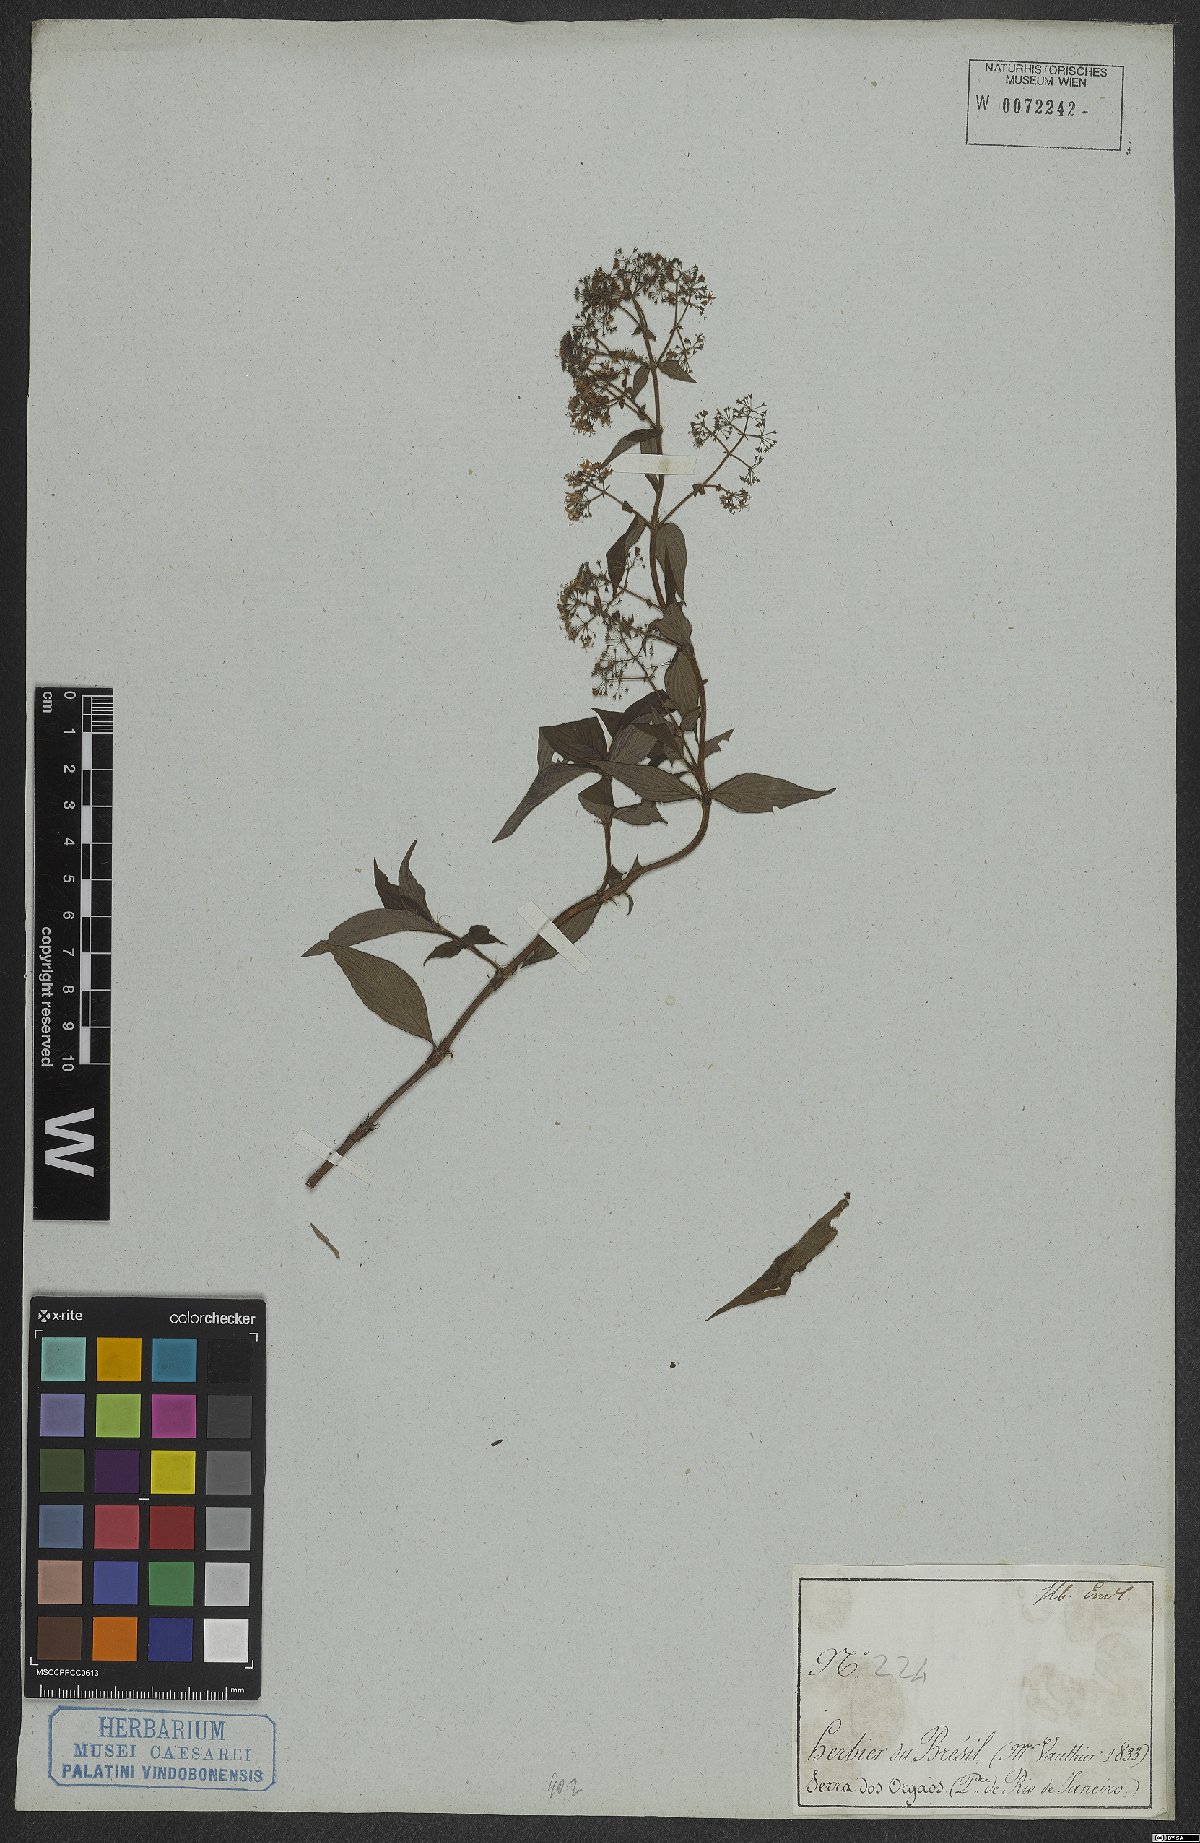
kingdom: Plantae
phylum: Tracheophyta
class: Magnoliopsida
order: Gentianales
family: Rubiaceae
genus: Emmeorhiza
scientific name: Emmeorhiza
